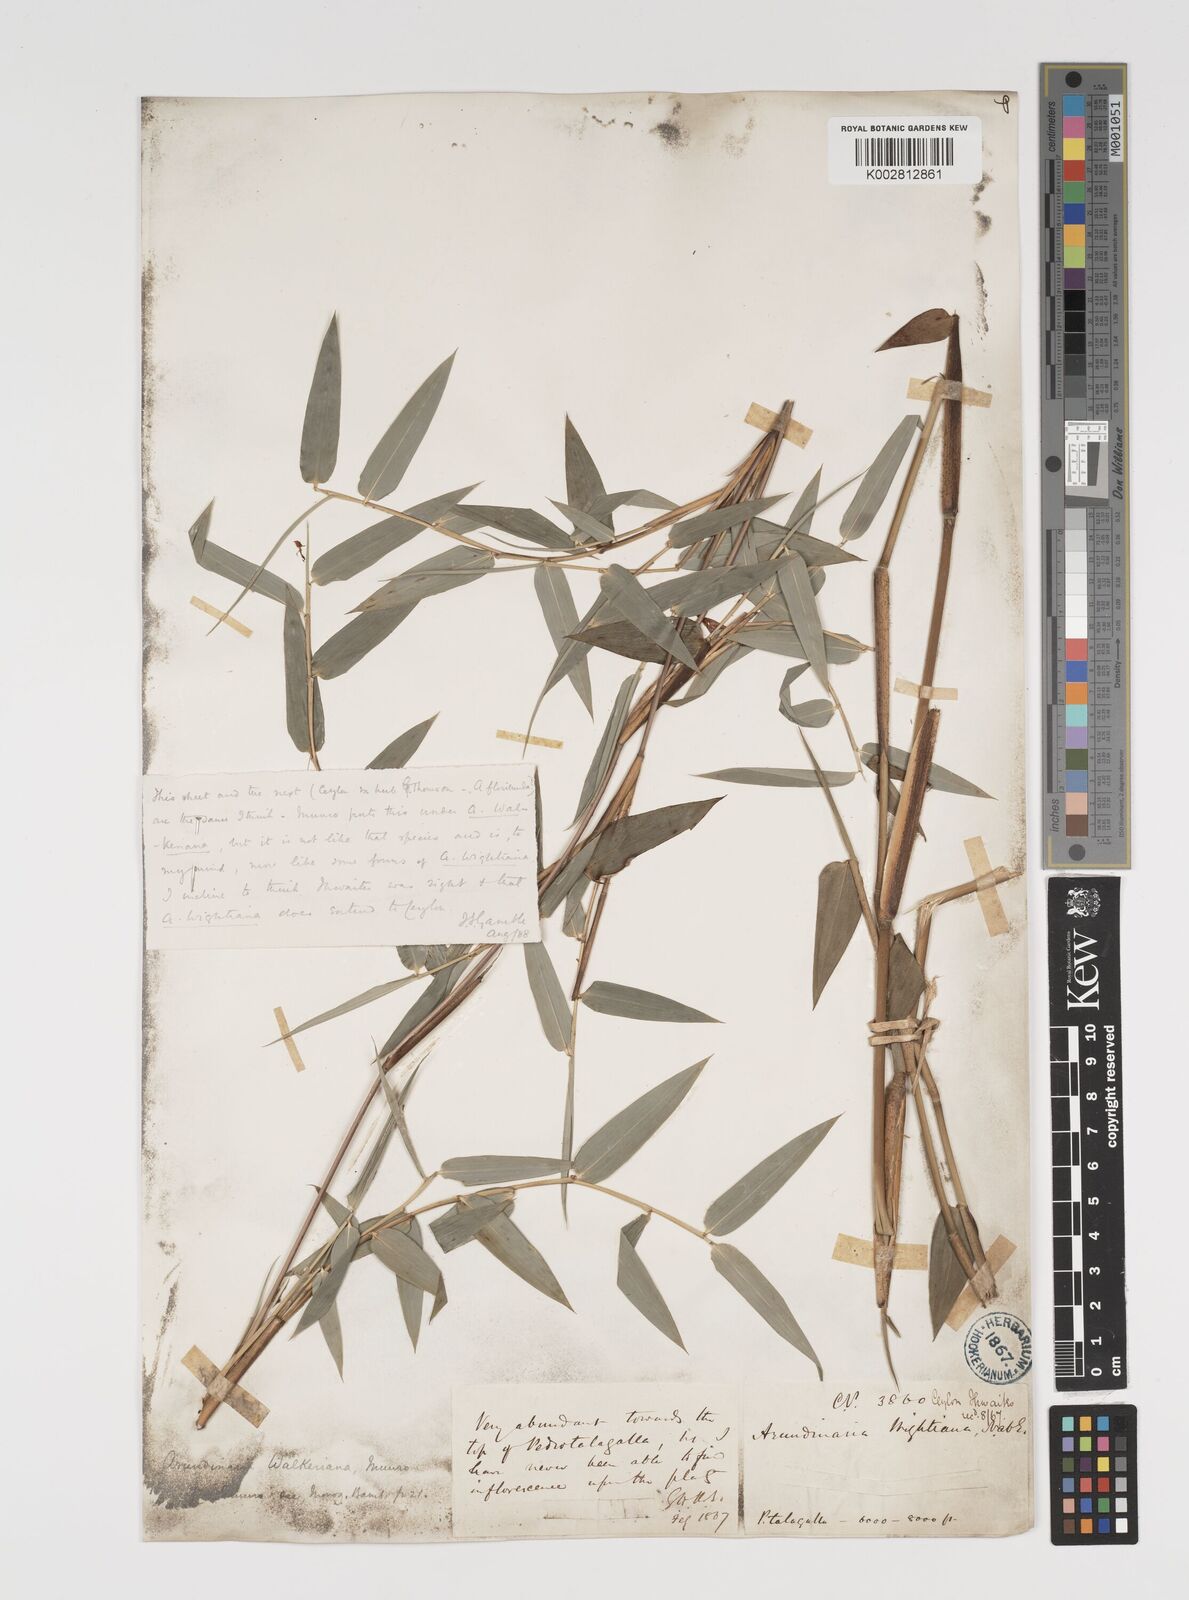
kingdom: Plantae
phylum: Tracheophyta
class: Liliopsida
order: Poales
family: Poaceae
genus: Kuruna
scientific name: Kuruna scandens
